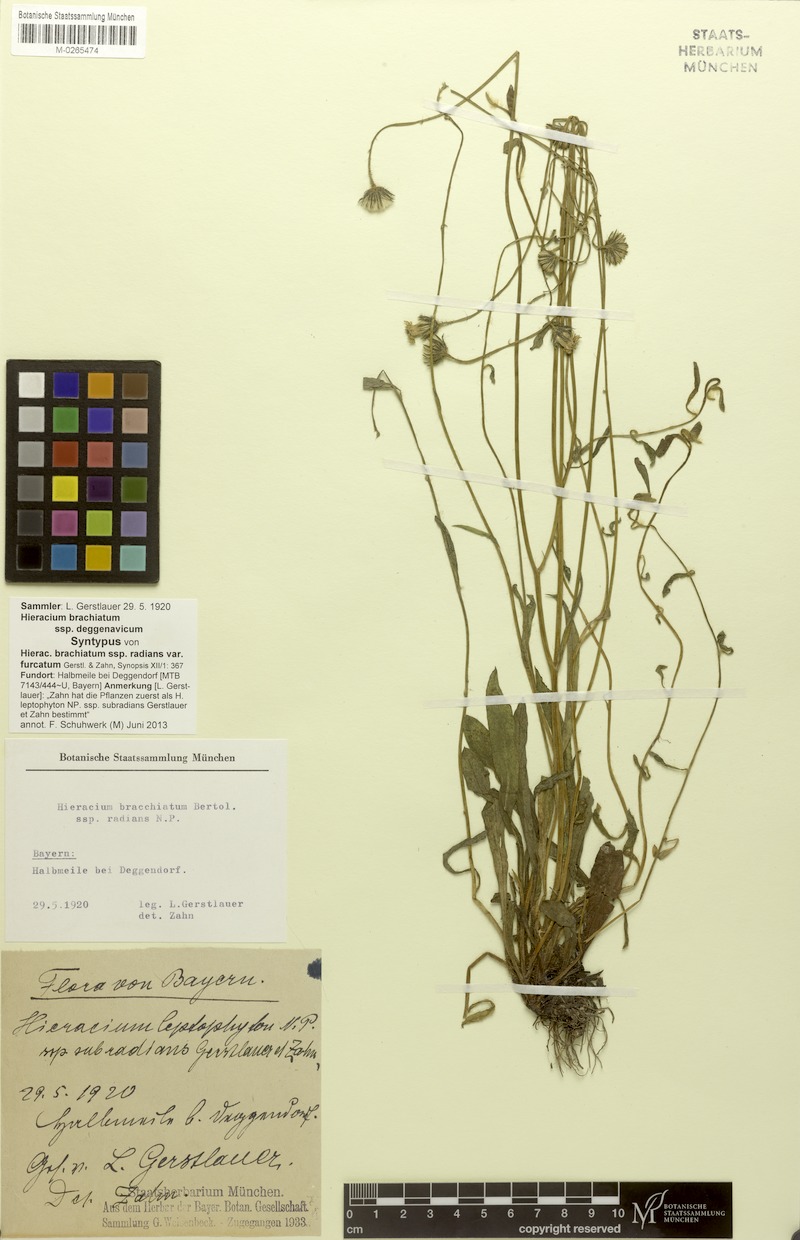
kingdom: Plantae
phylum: Tracheophyta
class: Magnoliopsida
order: Asterales
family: Asteraceae
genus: Pilosella
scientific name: Pilosella acutifolia
